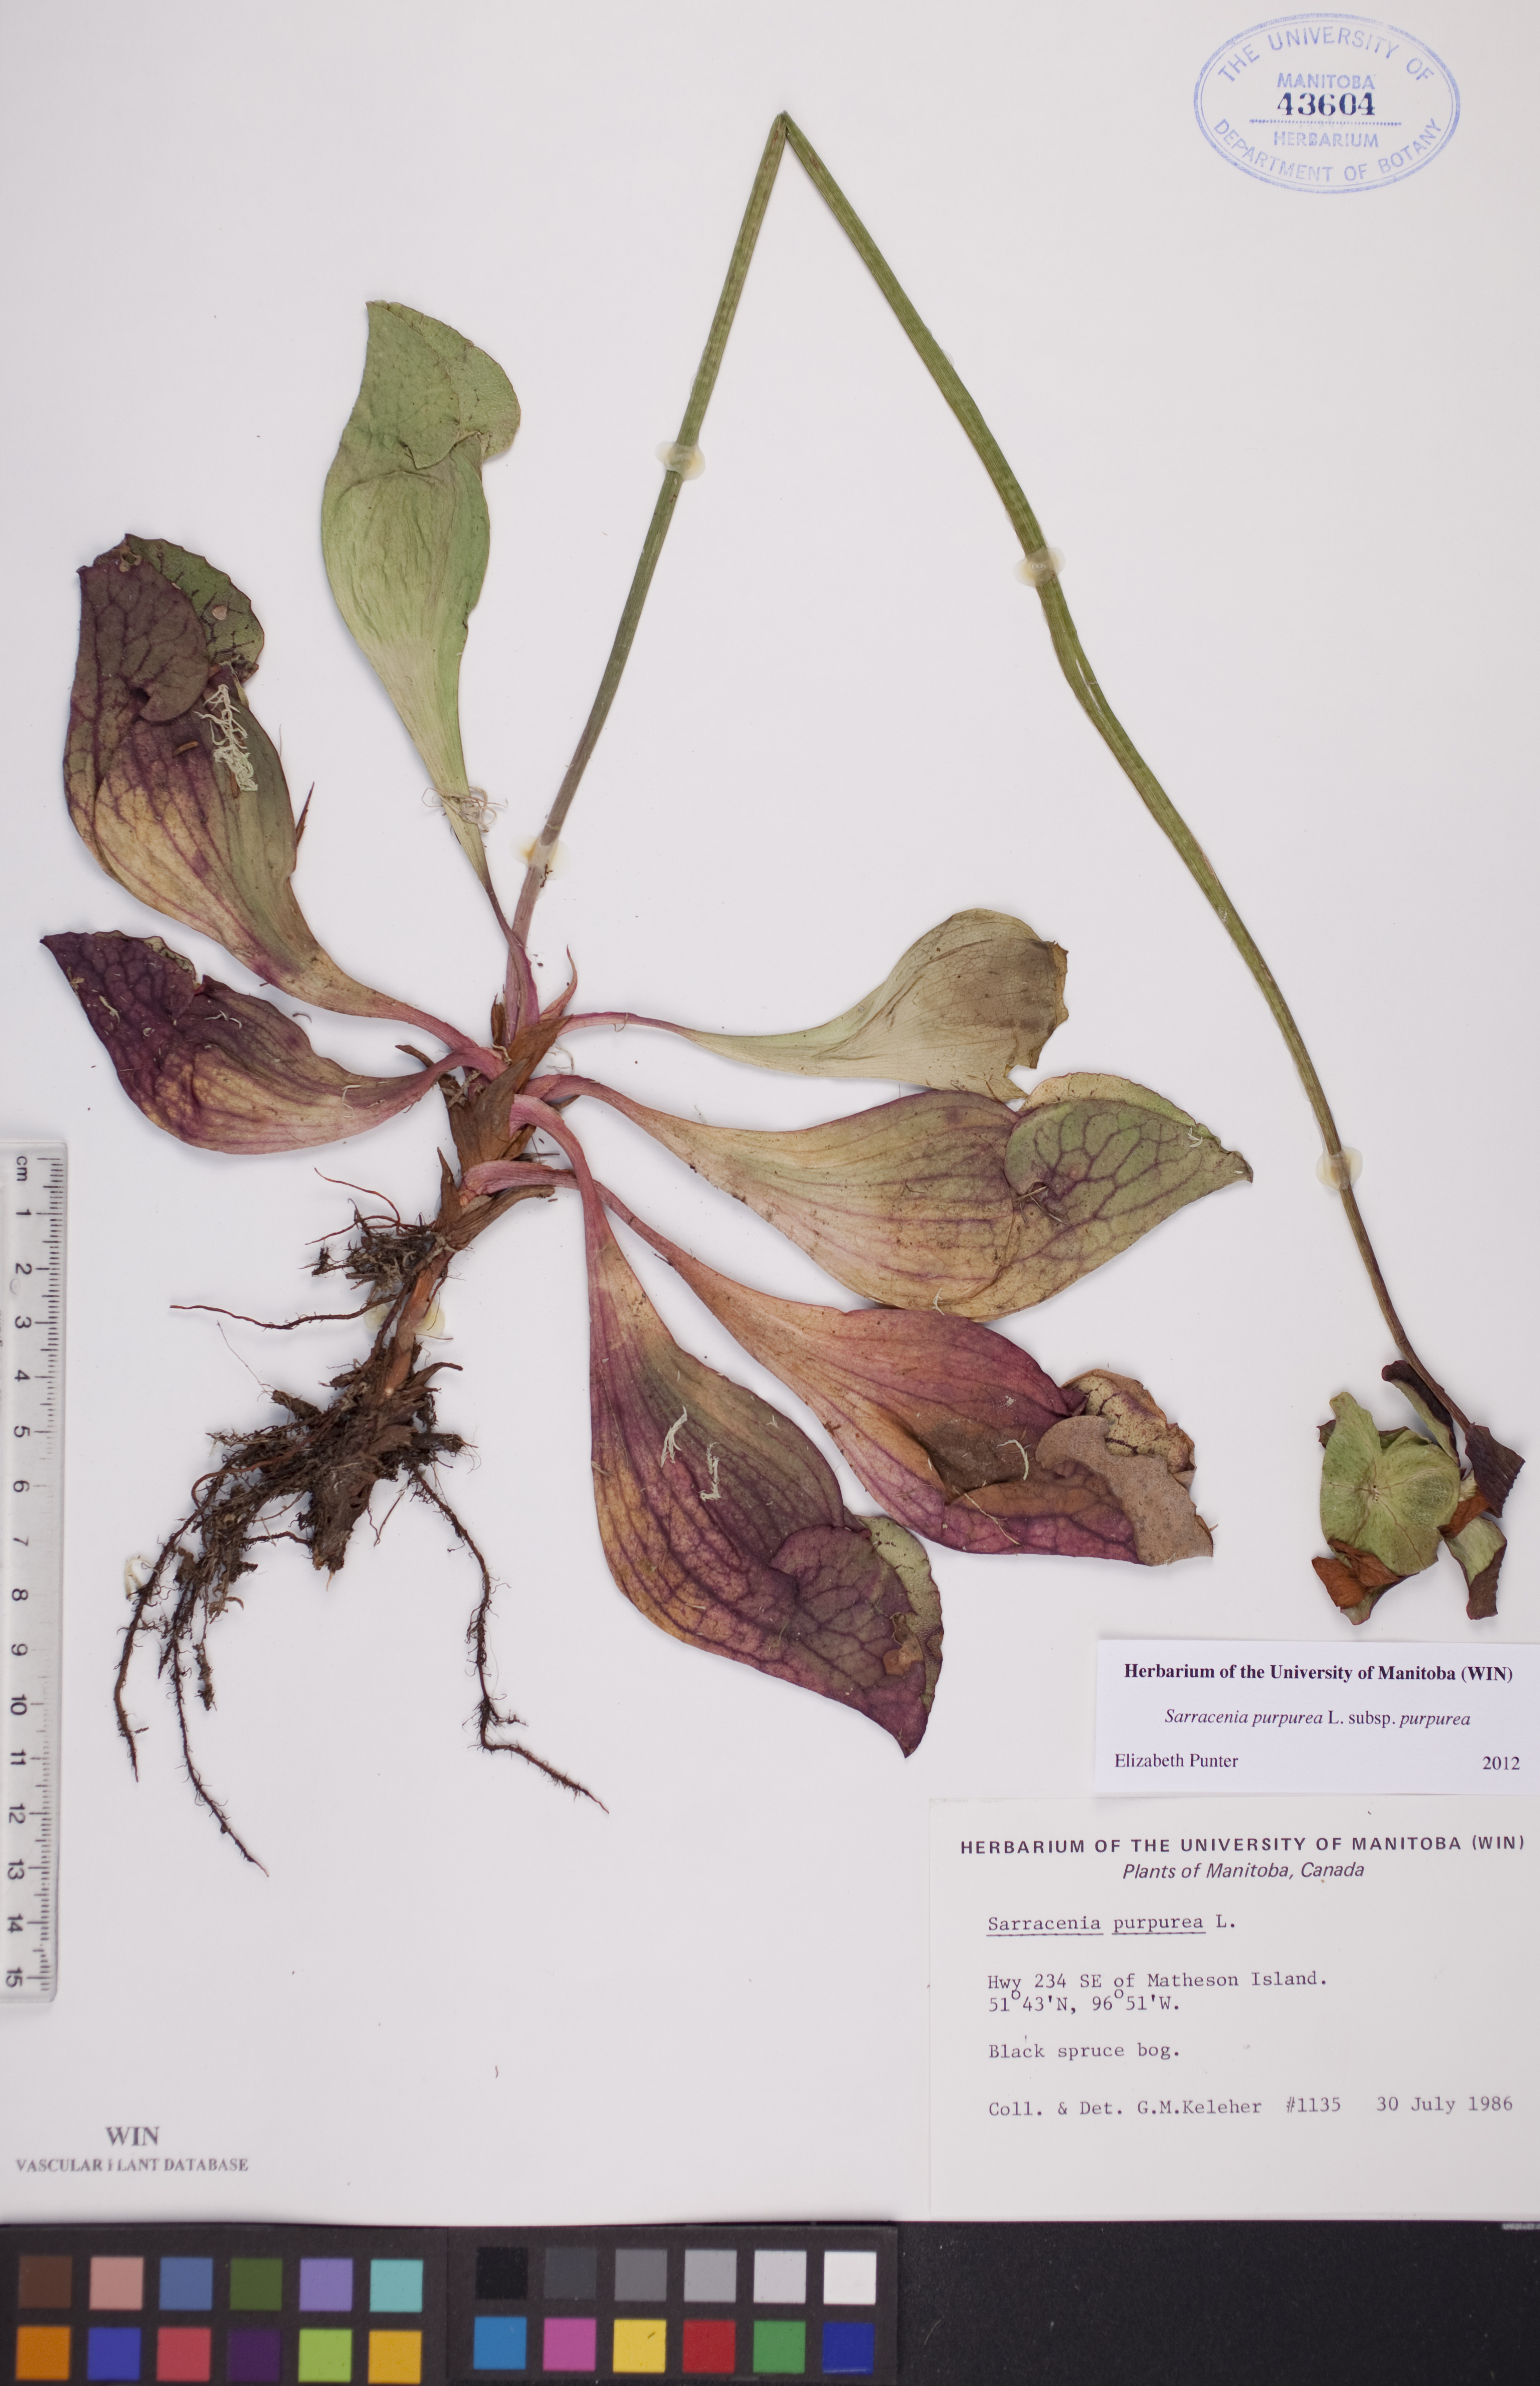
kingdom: Plantae
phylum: Tracheophyta
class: Magnoliopsida
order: Ericales
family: Sarraceniaceae
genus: Sarracenia
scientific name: Sarracenia purpurea
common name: Pitcherplant
